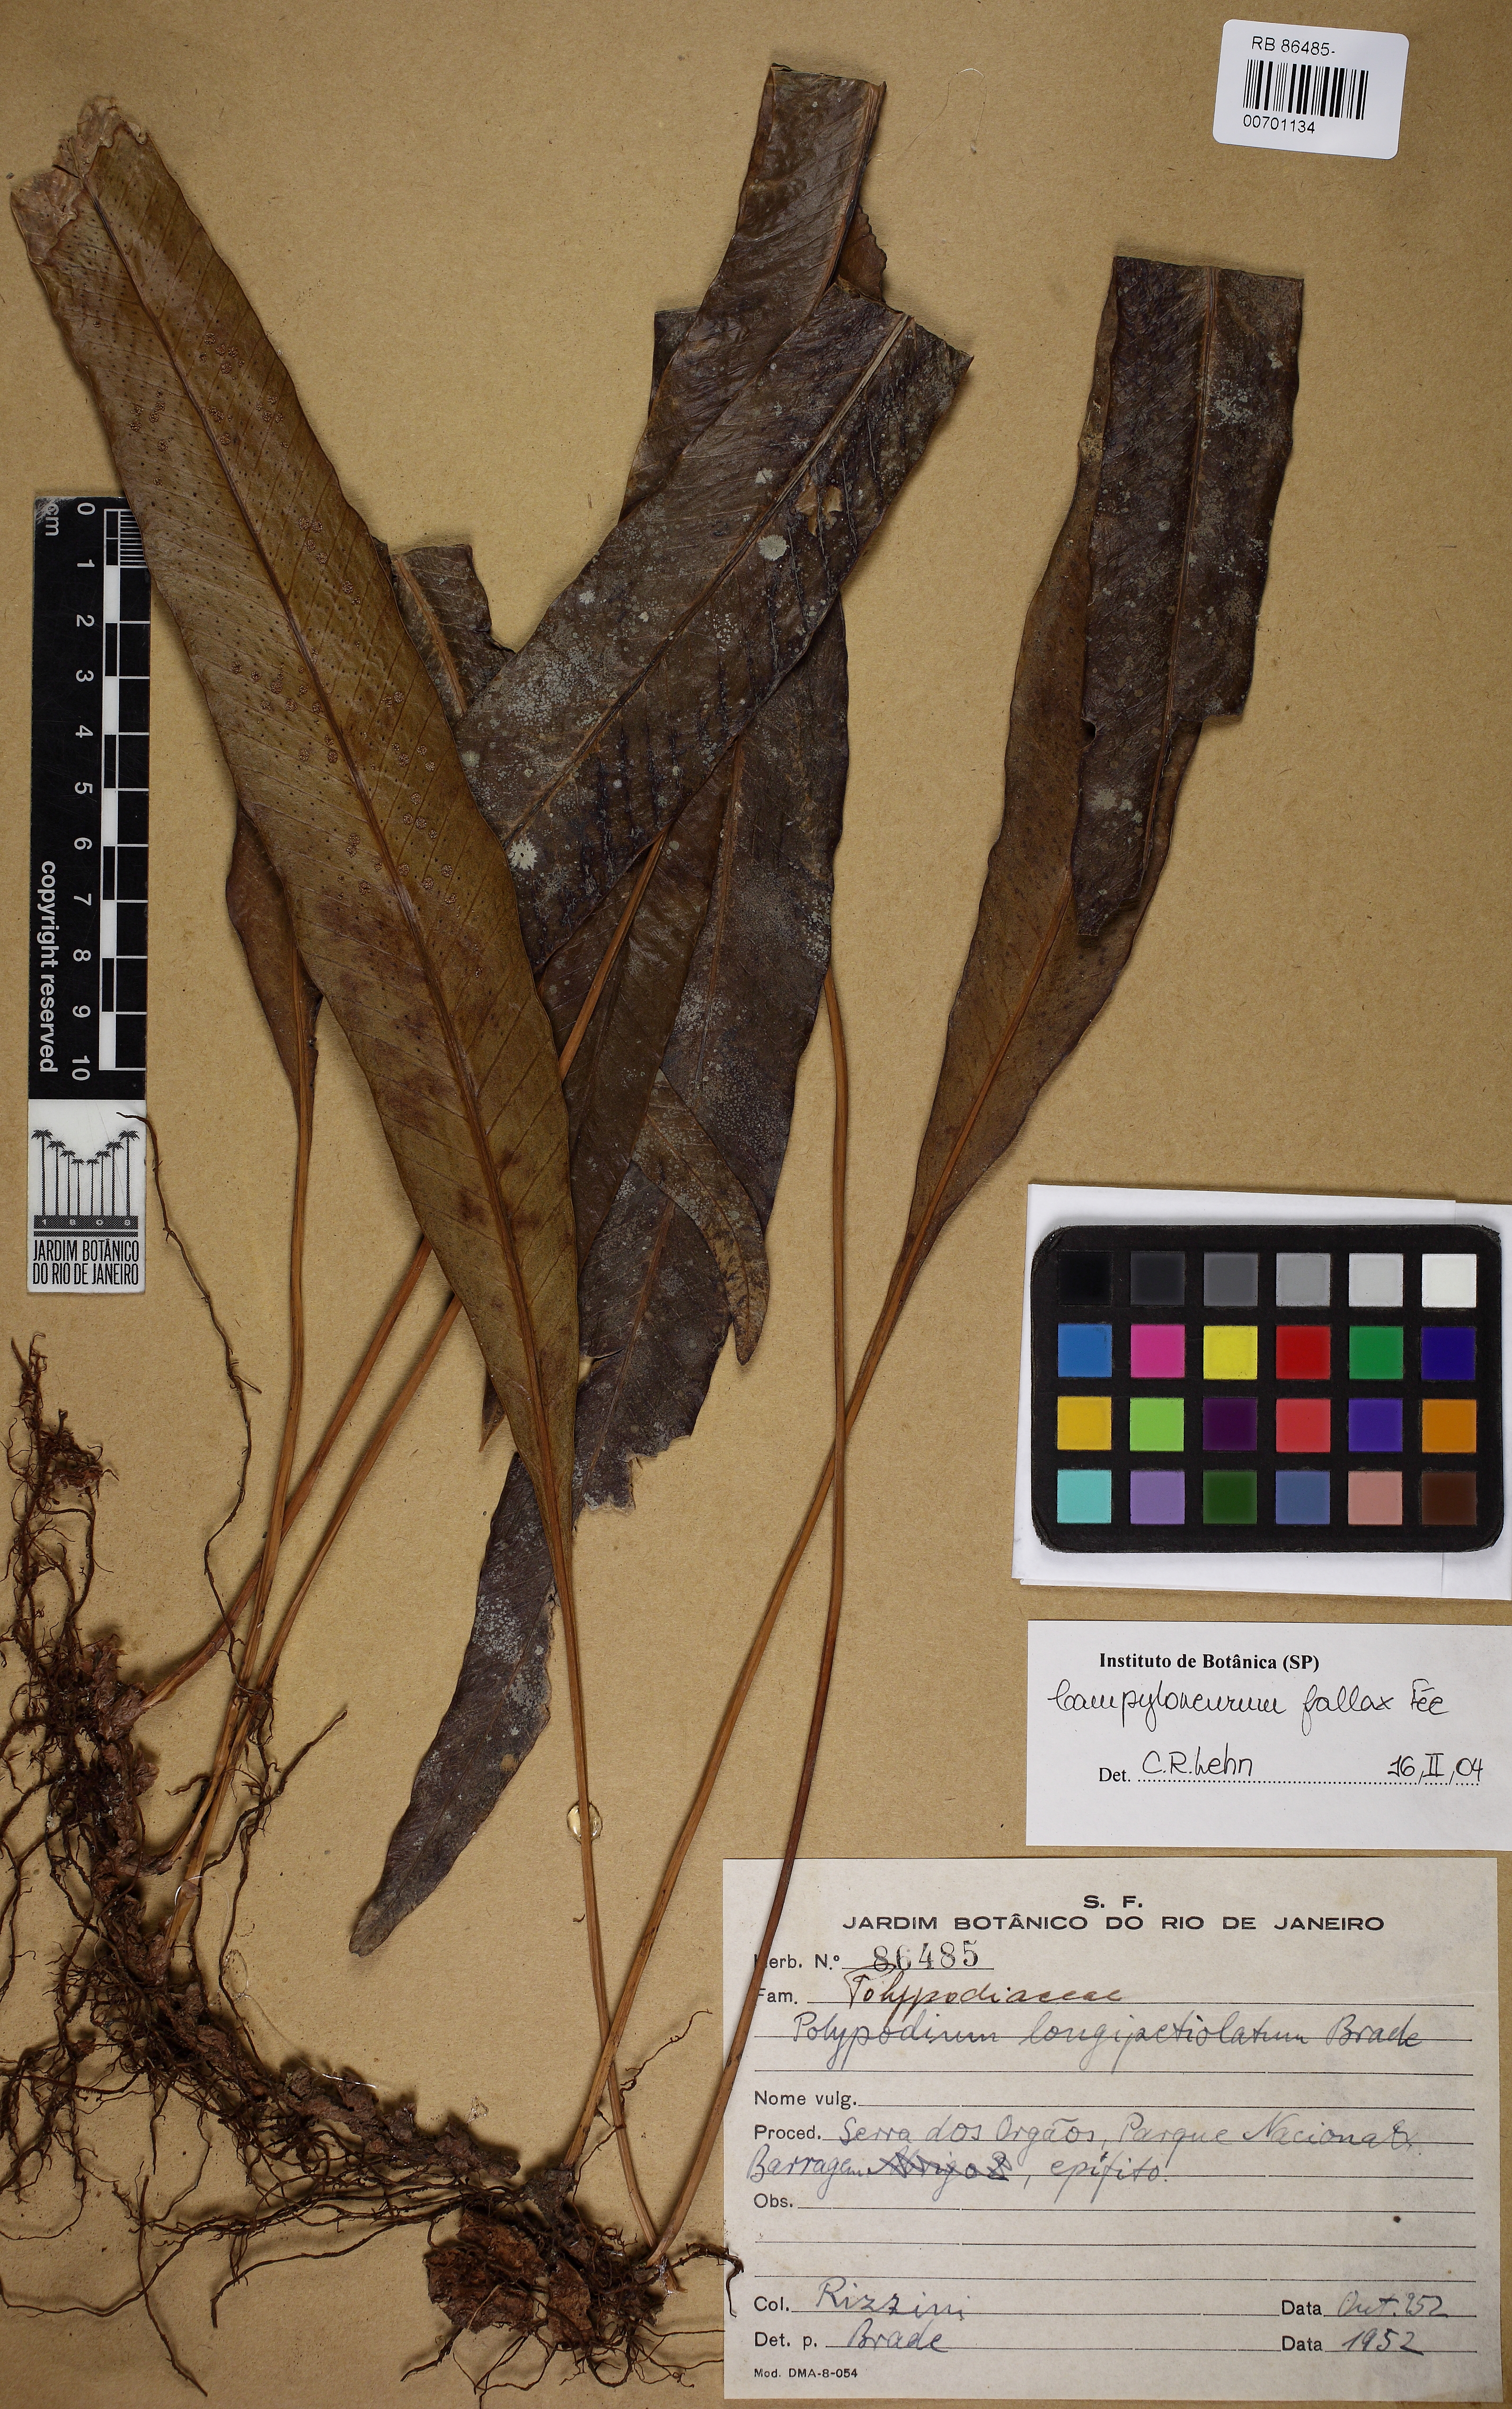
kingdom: Plantae
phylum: Tracheophyta
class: Polypodiopsida
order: Polypodiales
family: Polypodiaceae
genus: Campyloneurum
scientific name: Campyloneurum fallax
